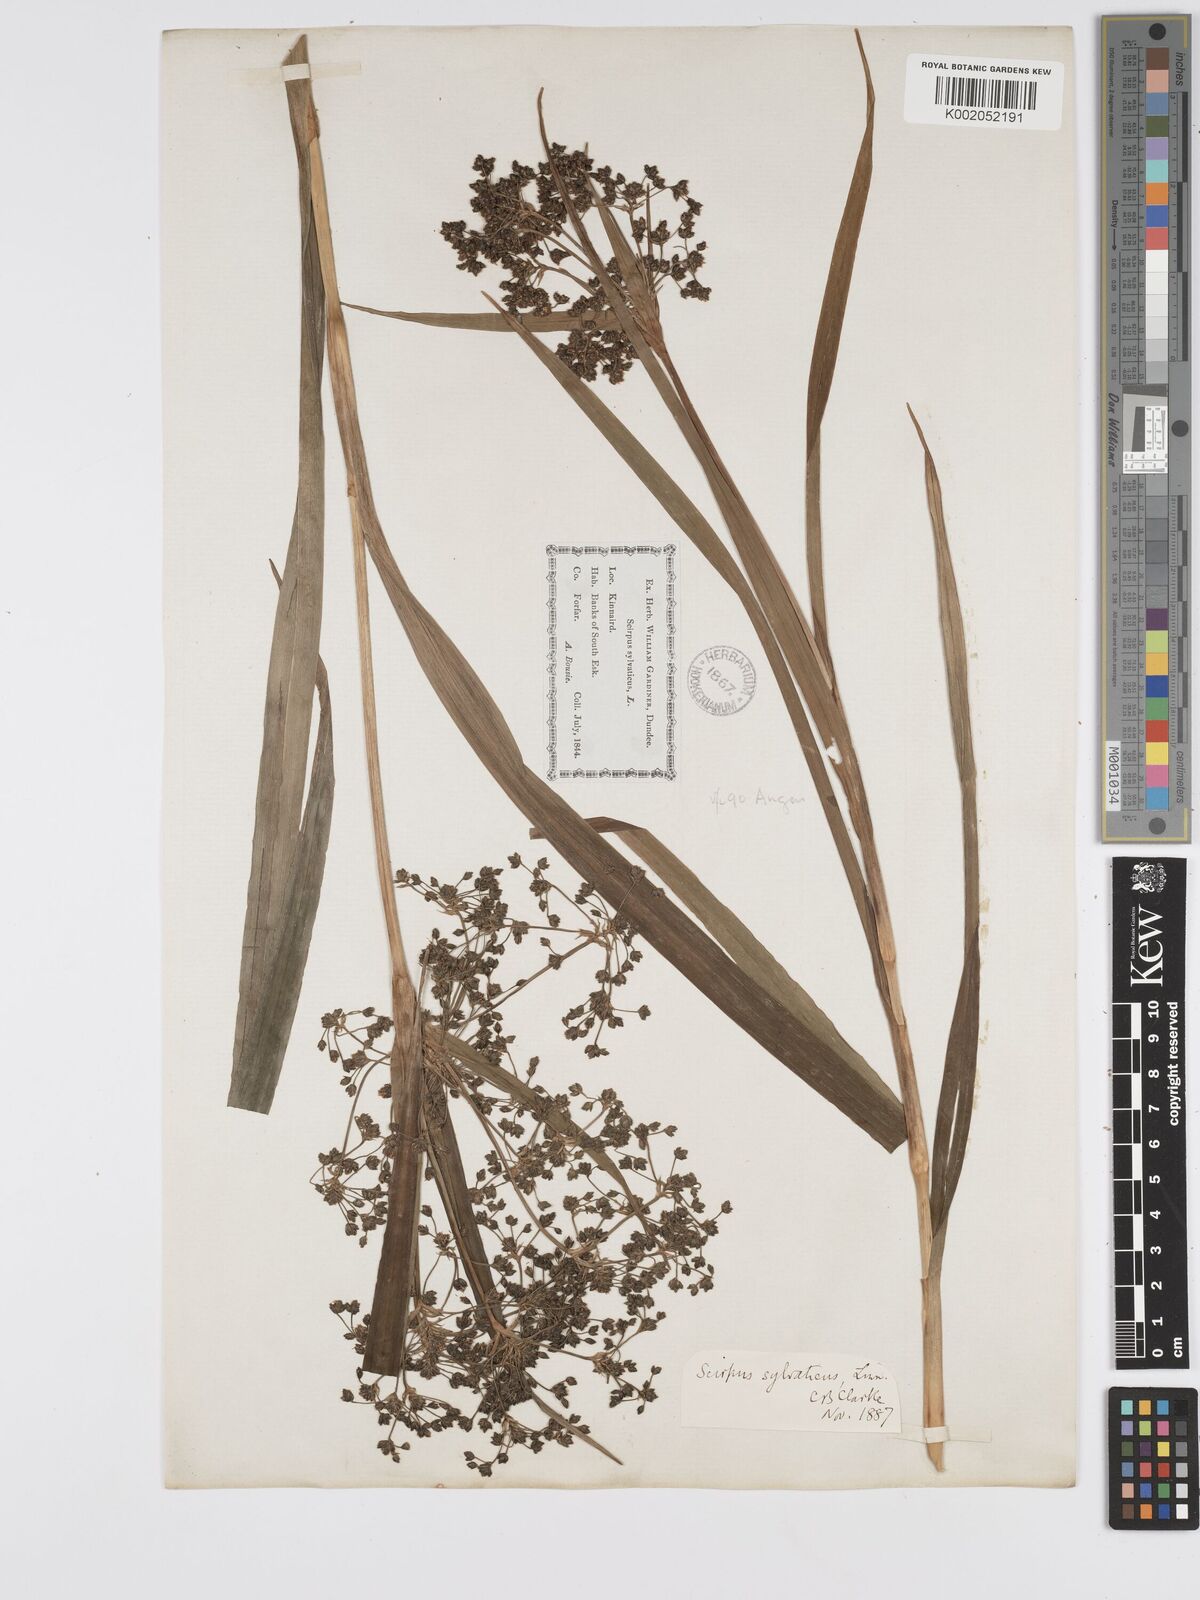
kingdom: Plantae
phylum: Tracheophyta
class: Liliopsida
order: Poales
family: Cyperaceae
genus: Scirpus
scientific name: Scirpus sylvaticus
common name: Wood club-rush
